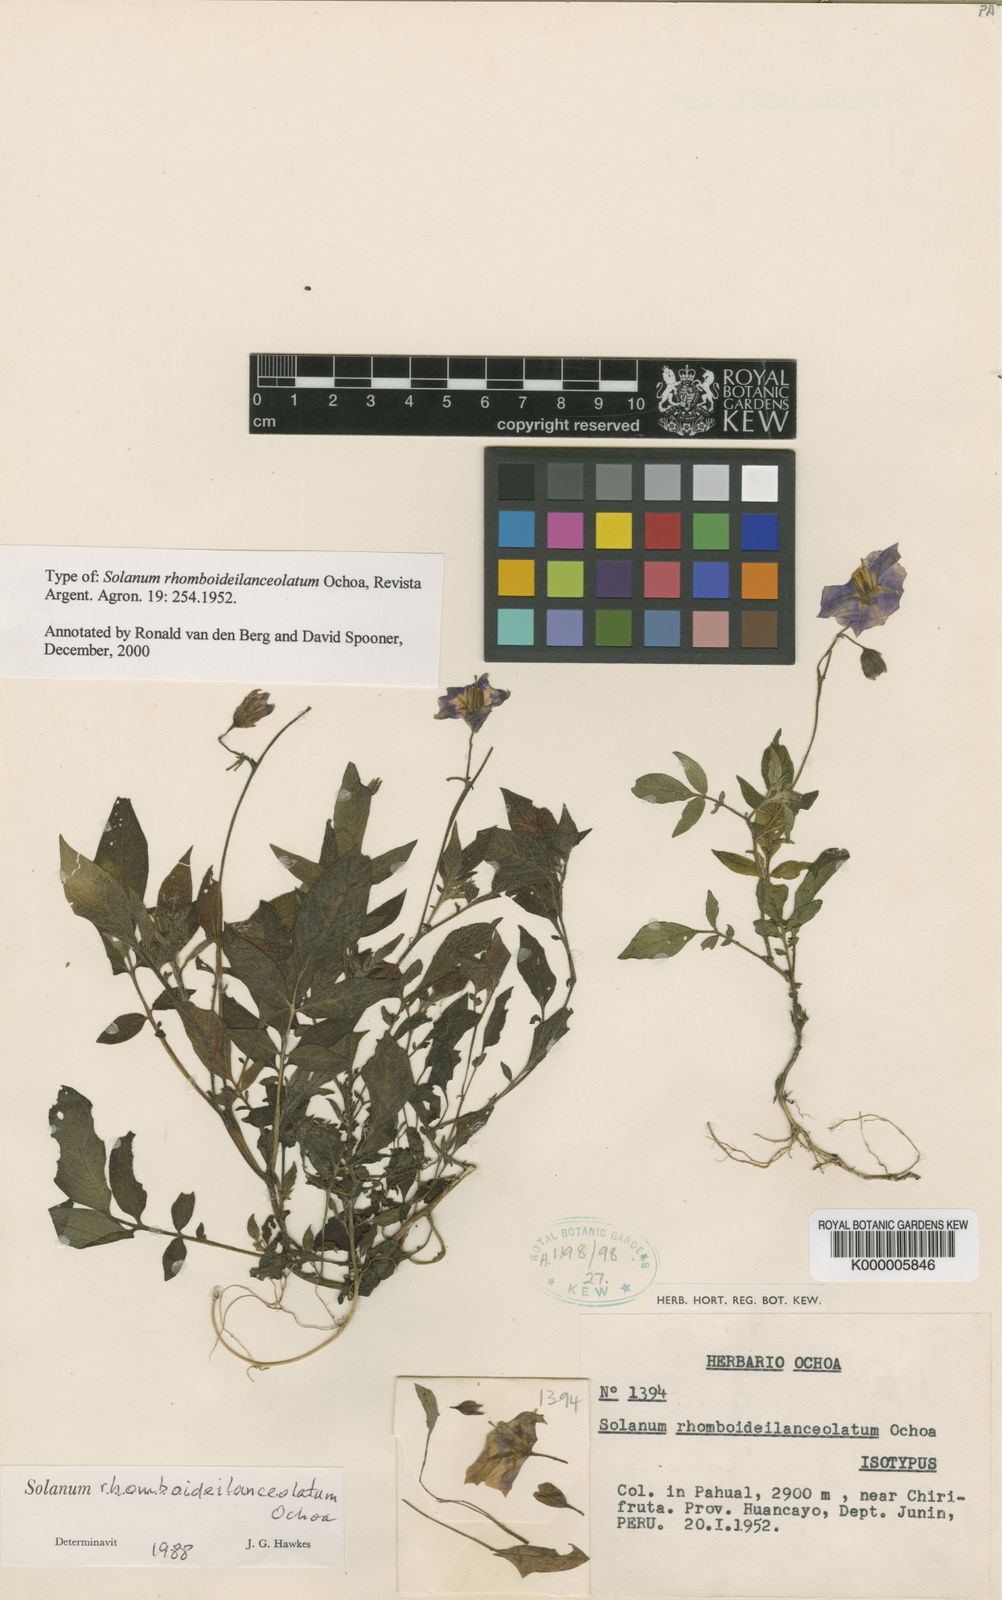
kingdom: Plantae
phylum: Tracheophyta
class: Magnoliopsida
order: Solanales
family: Solanaceae
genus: Solanum
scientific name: Solanum rhomboideilanceolatum
